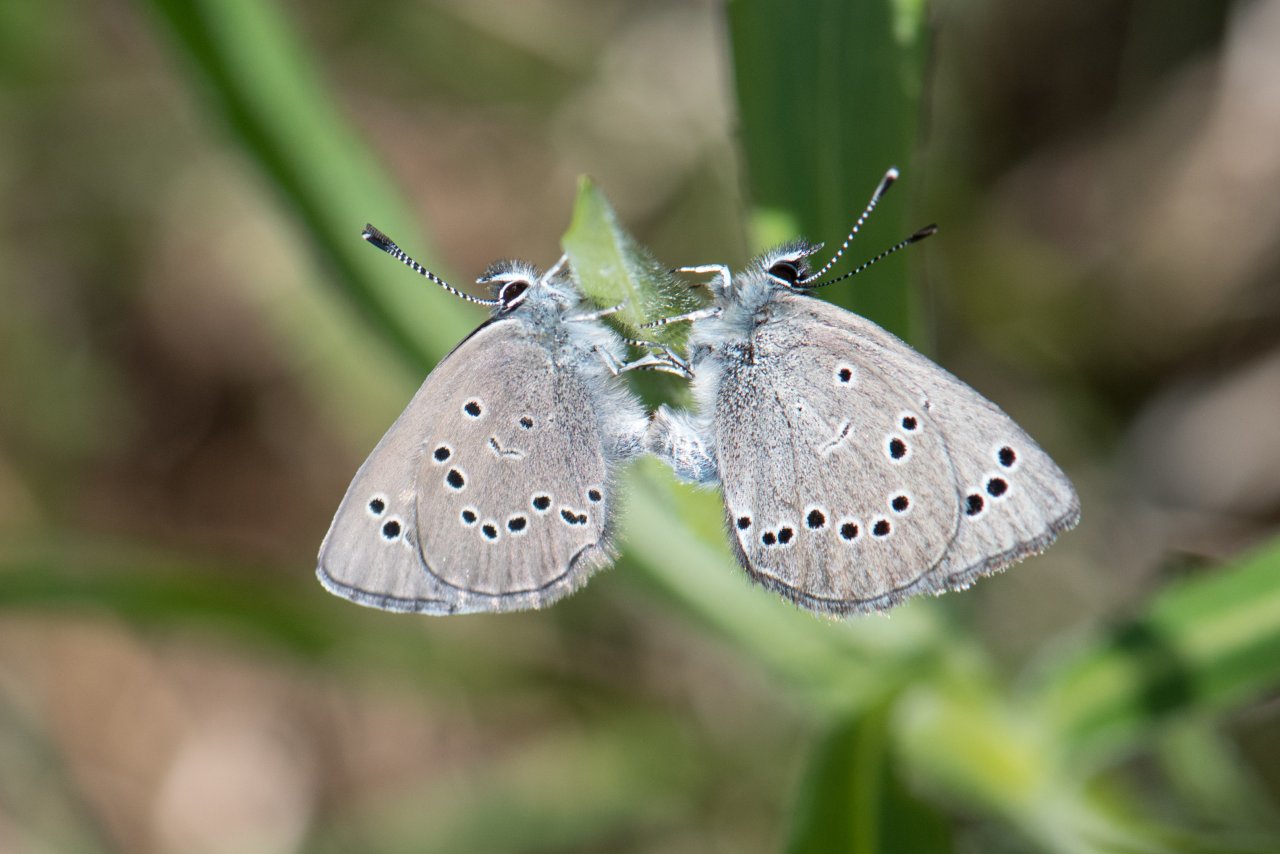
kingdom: Animalia
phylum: Arthropoda
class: Insecta
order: Lepidoptera
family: Lycaenidae
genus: Glaucopsyche
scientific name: Glaucopsyche lygdamus
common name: Silvery Blue
